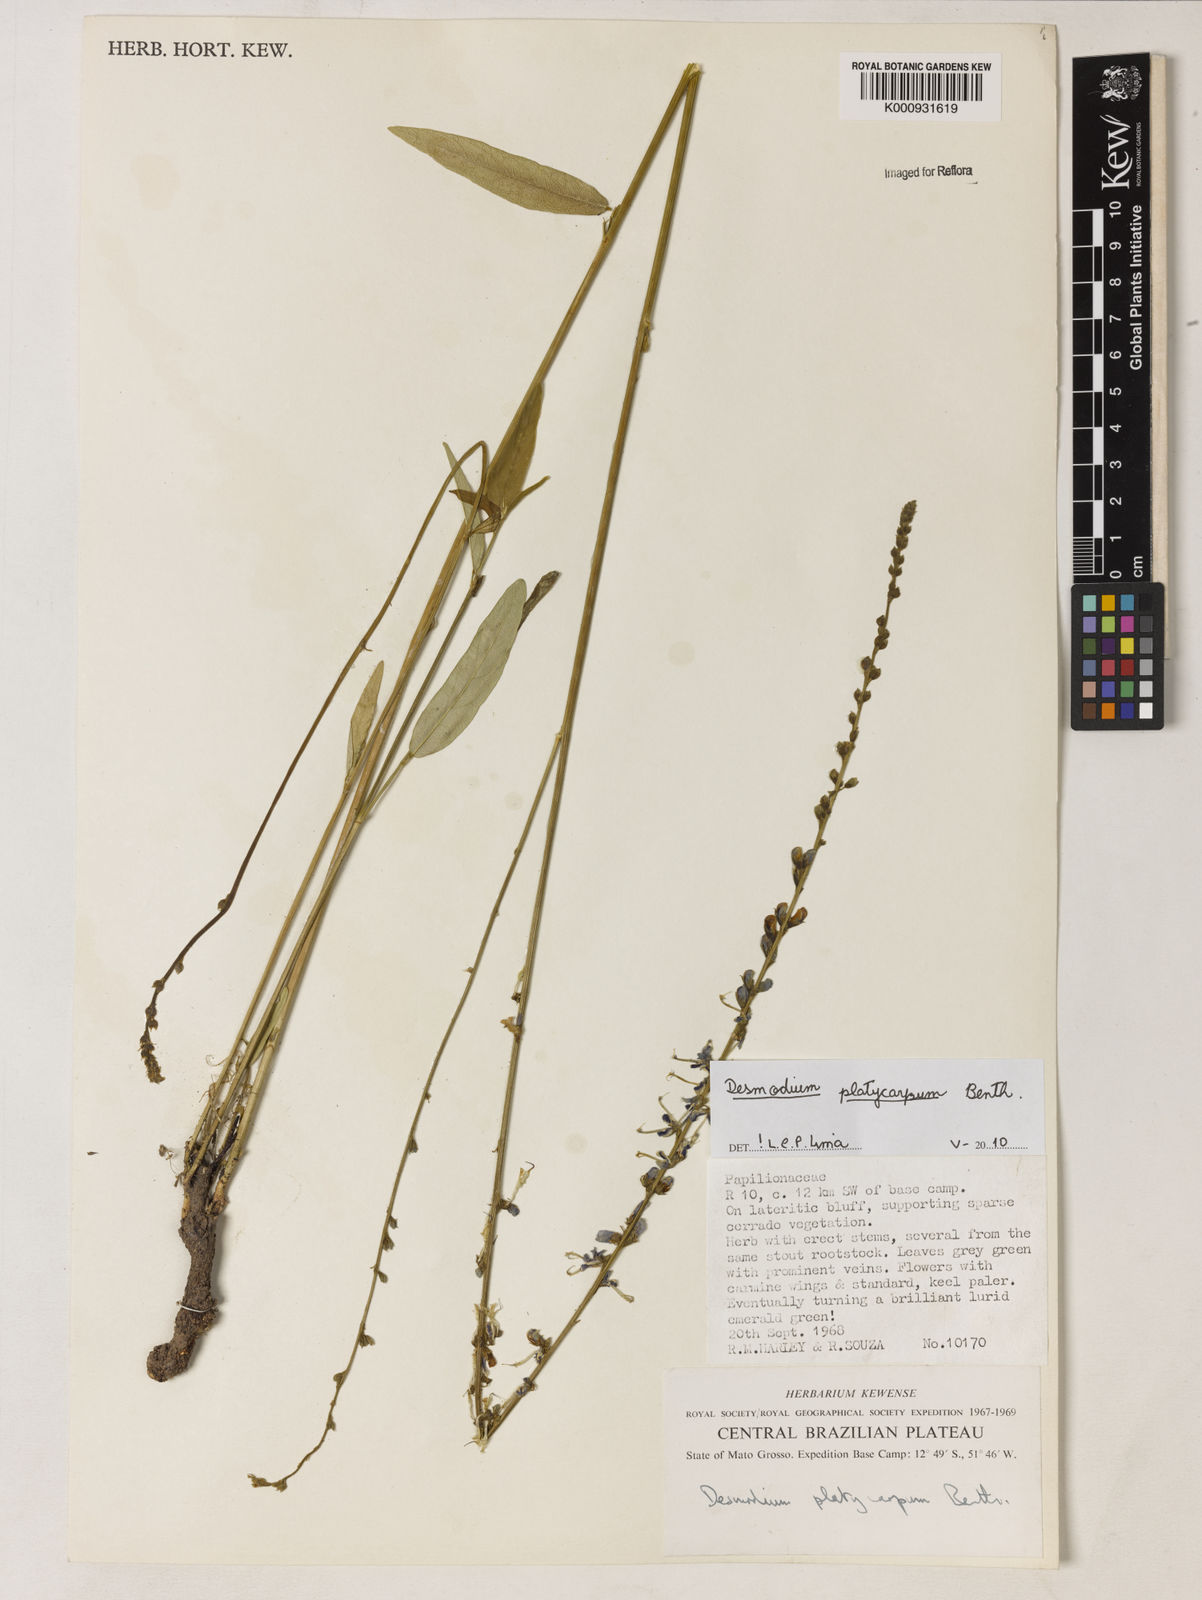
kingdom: Plantae
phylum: Tracheophyta
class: Magnoliopsida
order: Fabales
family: Fabaceae
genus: Desmodium
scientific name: Desmodium platycarpum
